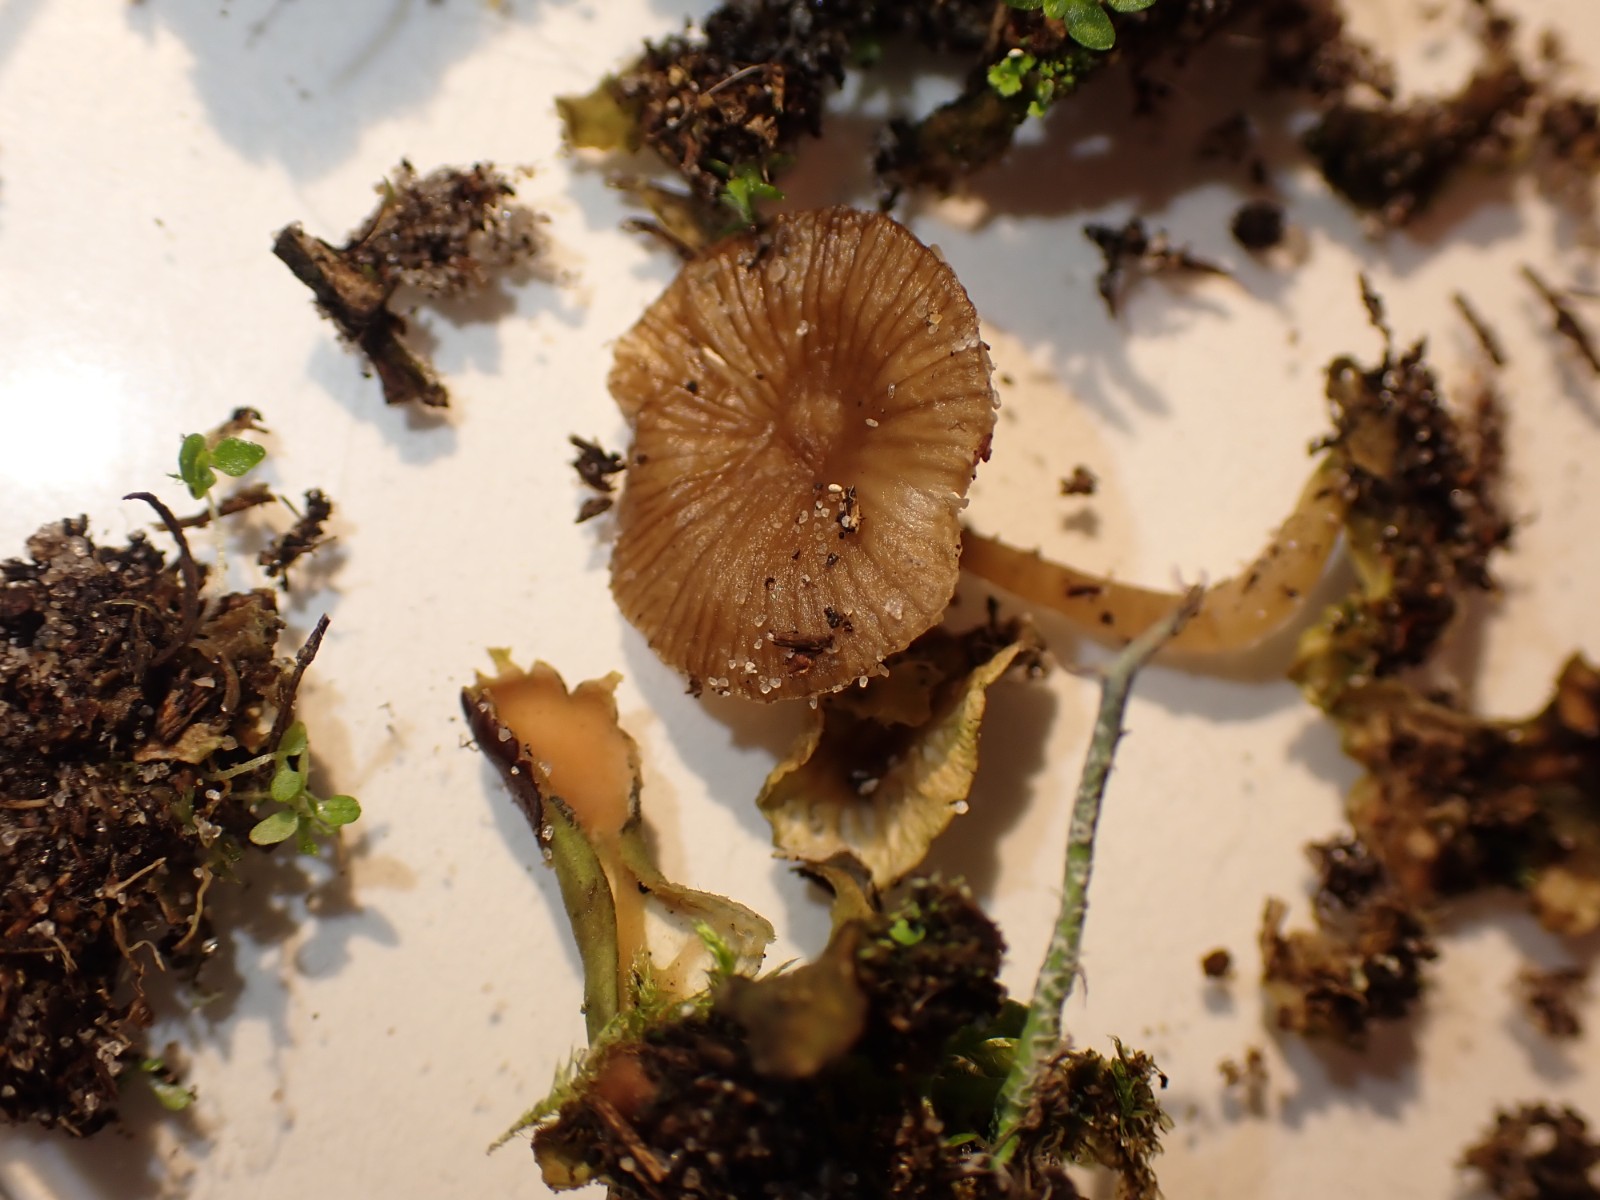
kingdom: Fungi
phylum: Basidiomycota
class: Agaricomycetes
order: Agaricales
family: Tricholomataceae
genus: Gamundia
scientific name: Gamundia xerophila
